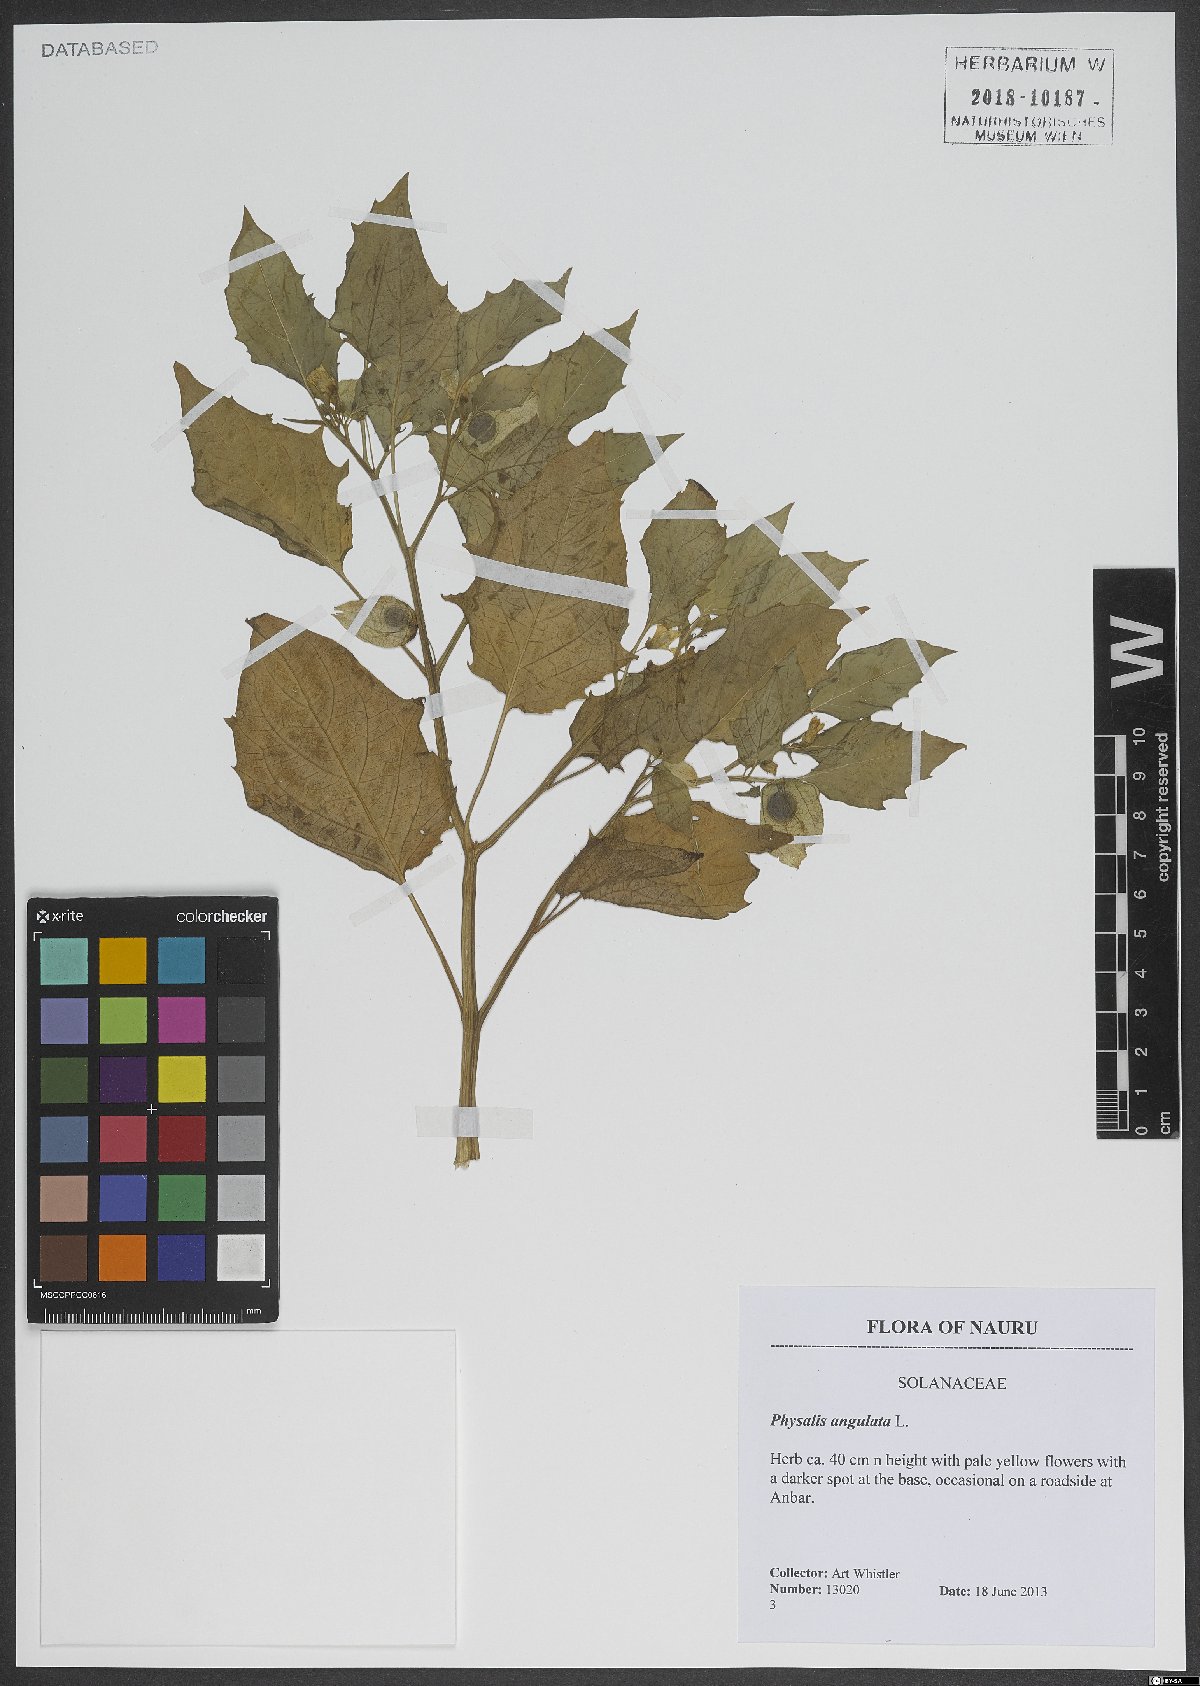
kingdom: Plantae
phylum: Tracheophyta
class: Magnoliopsida
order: Solanales
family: Solanaceae
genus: Physalis
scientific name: Physalis angulata
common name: Angular winter-cherry
